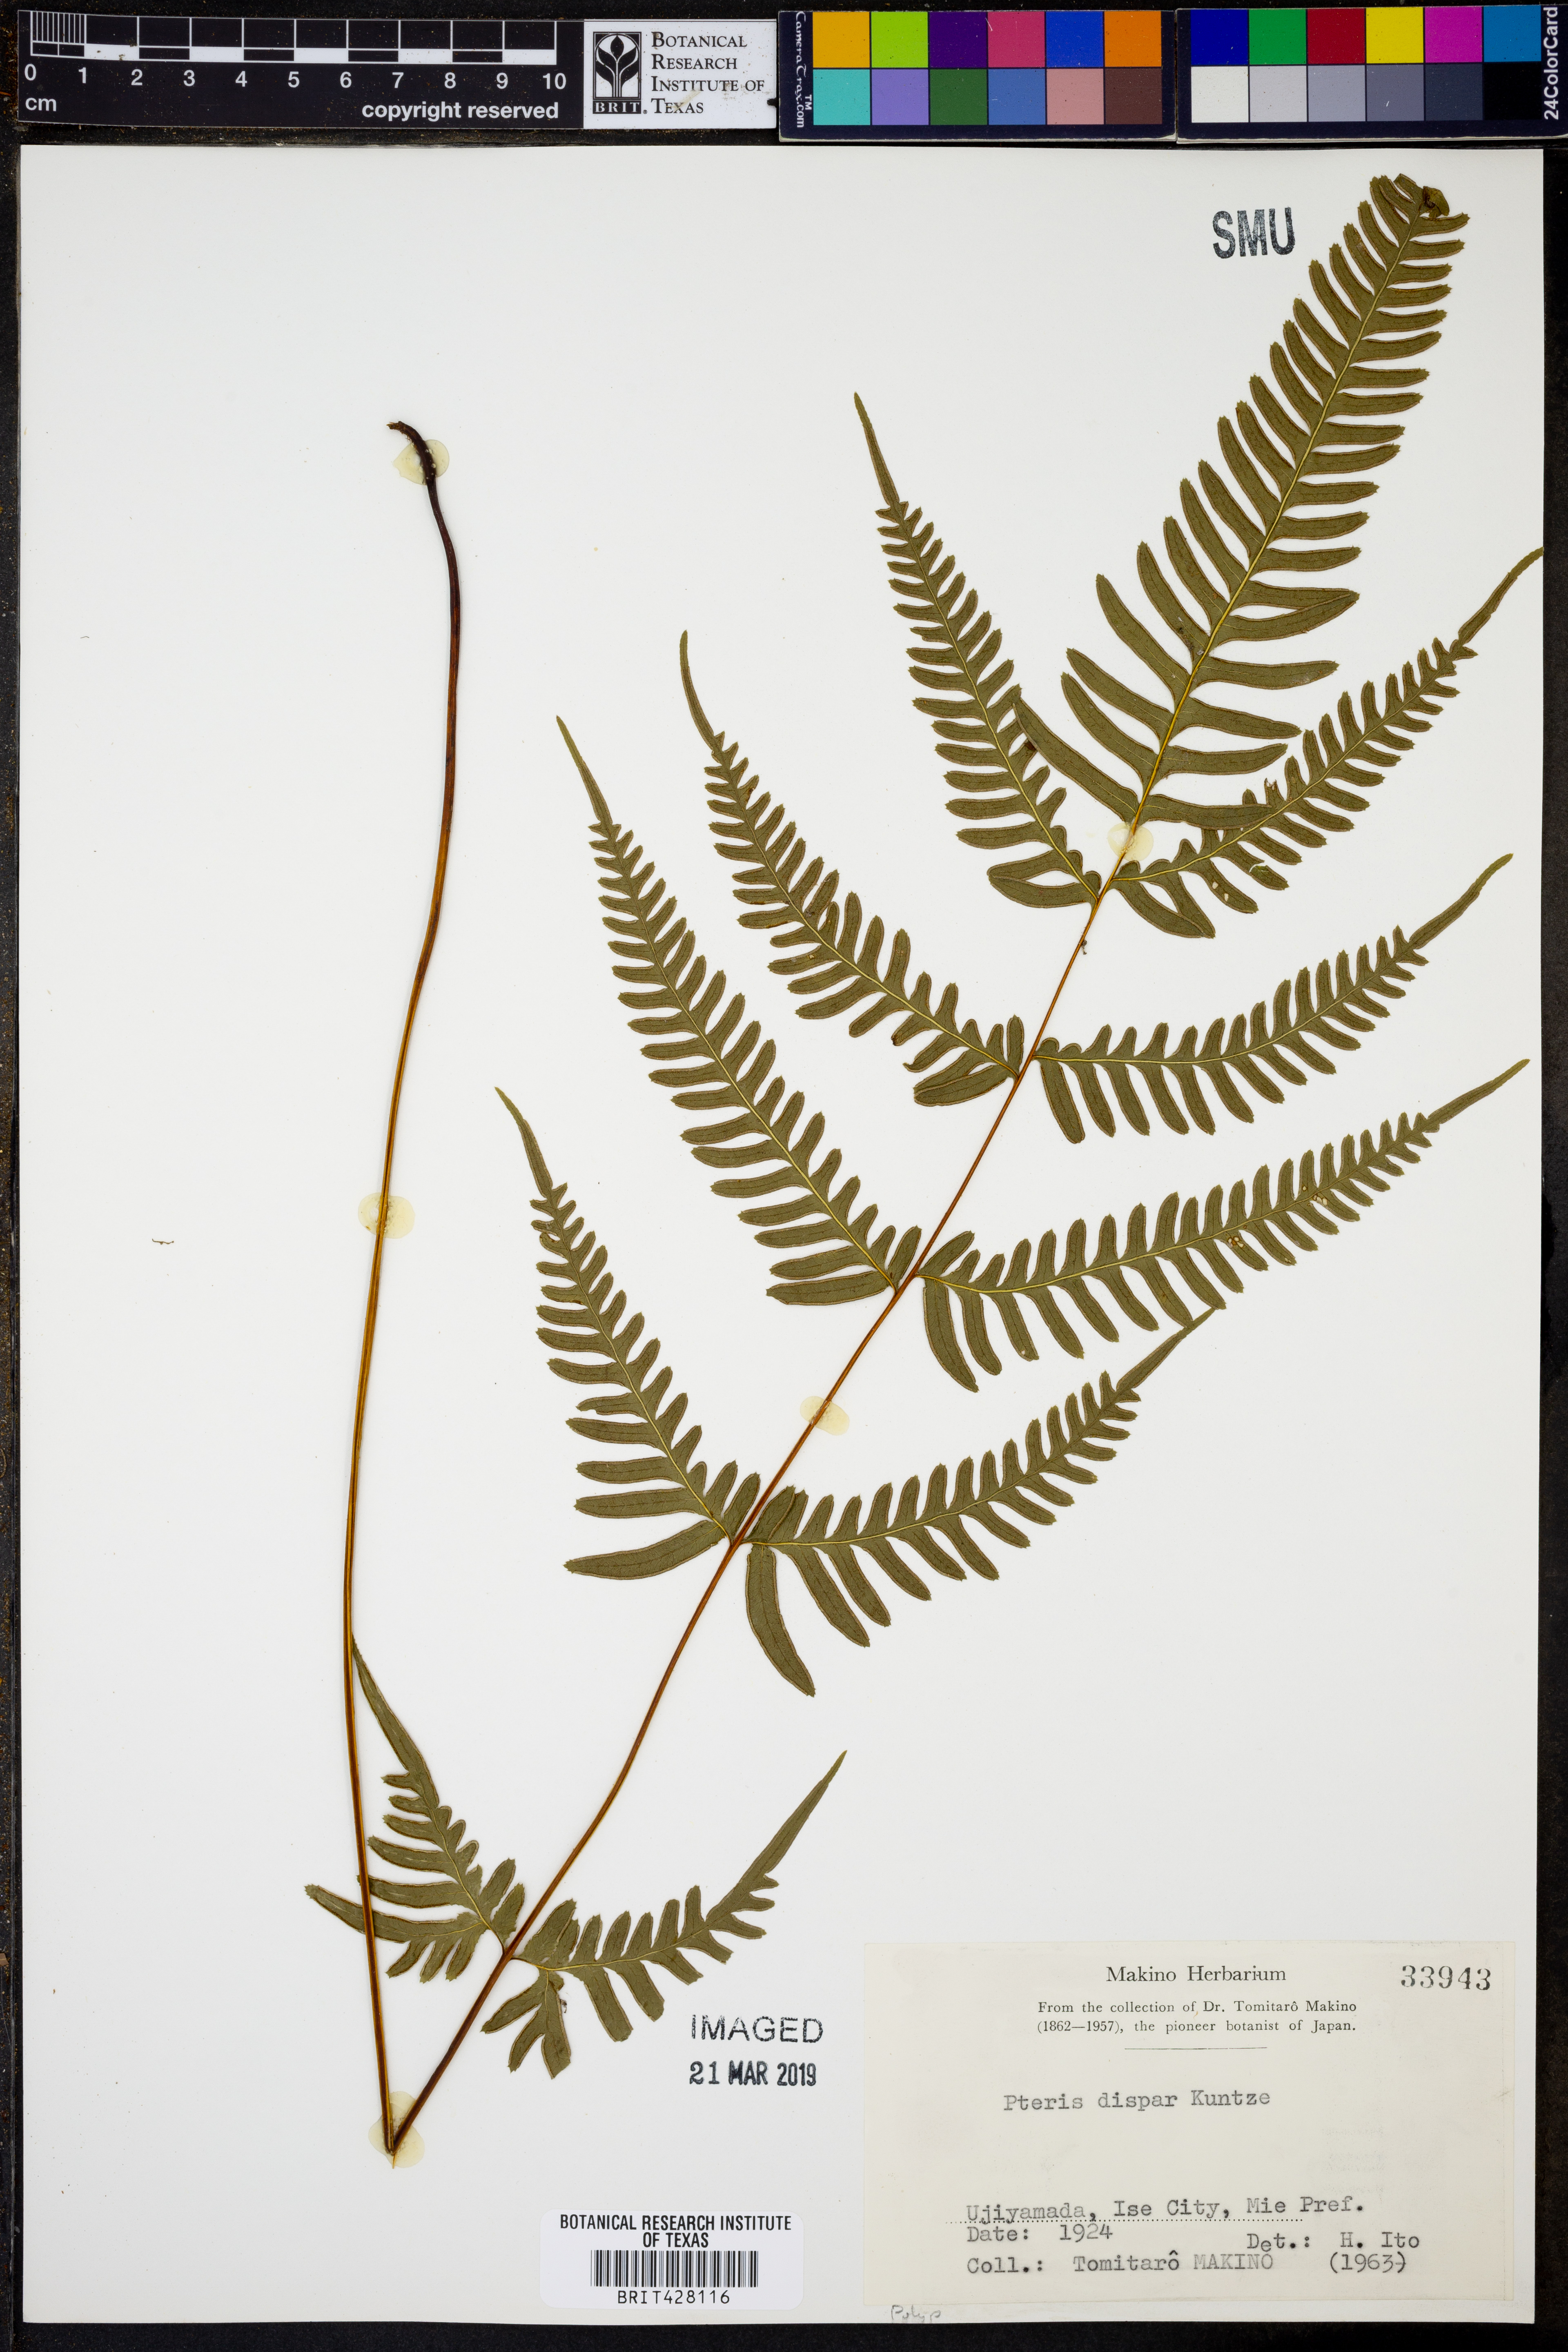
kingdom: Plantae
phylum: Tracheophyta
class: Polypodiopsida
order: Polypodiales
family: Pteridaceae
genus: Pteris
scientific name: Pteris dispar
